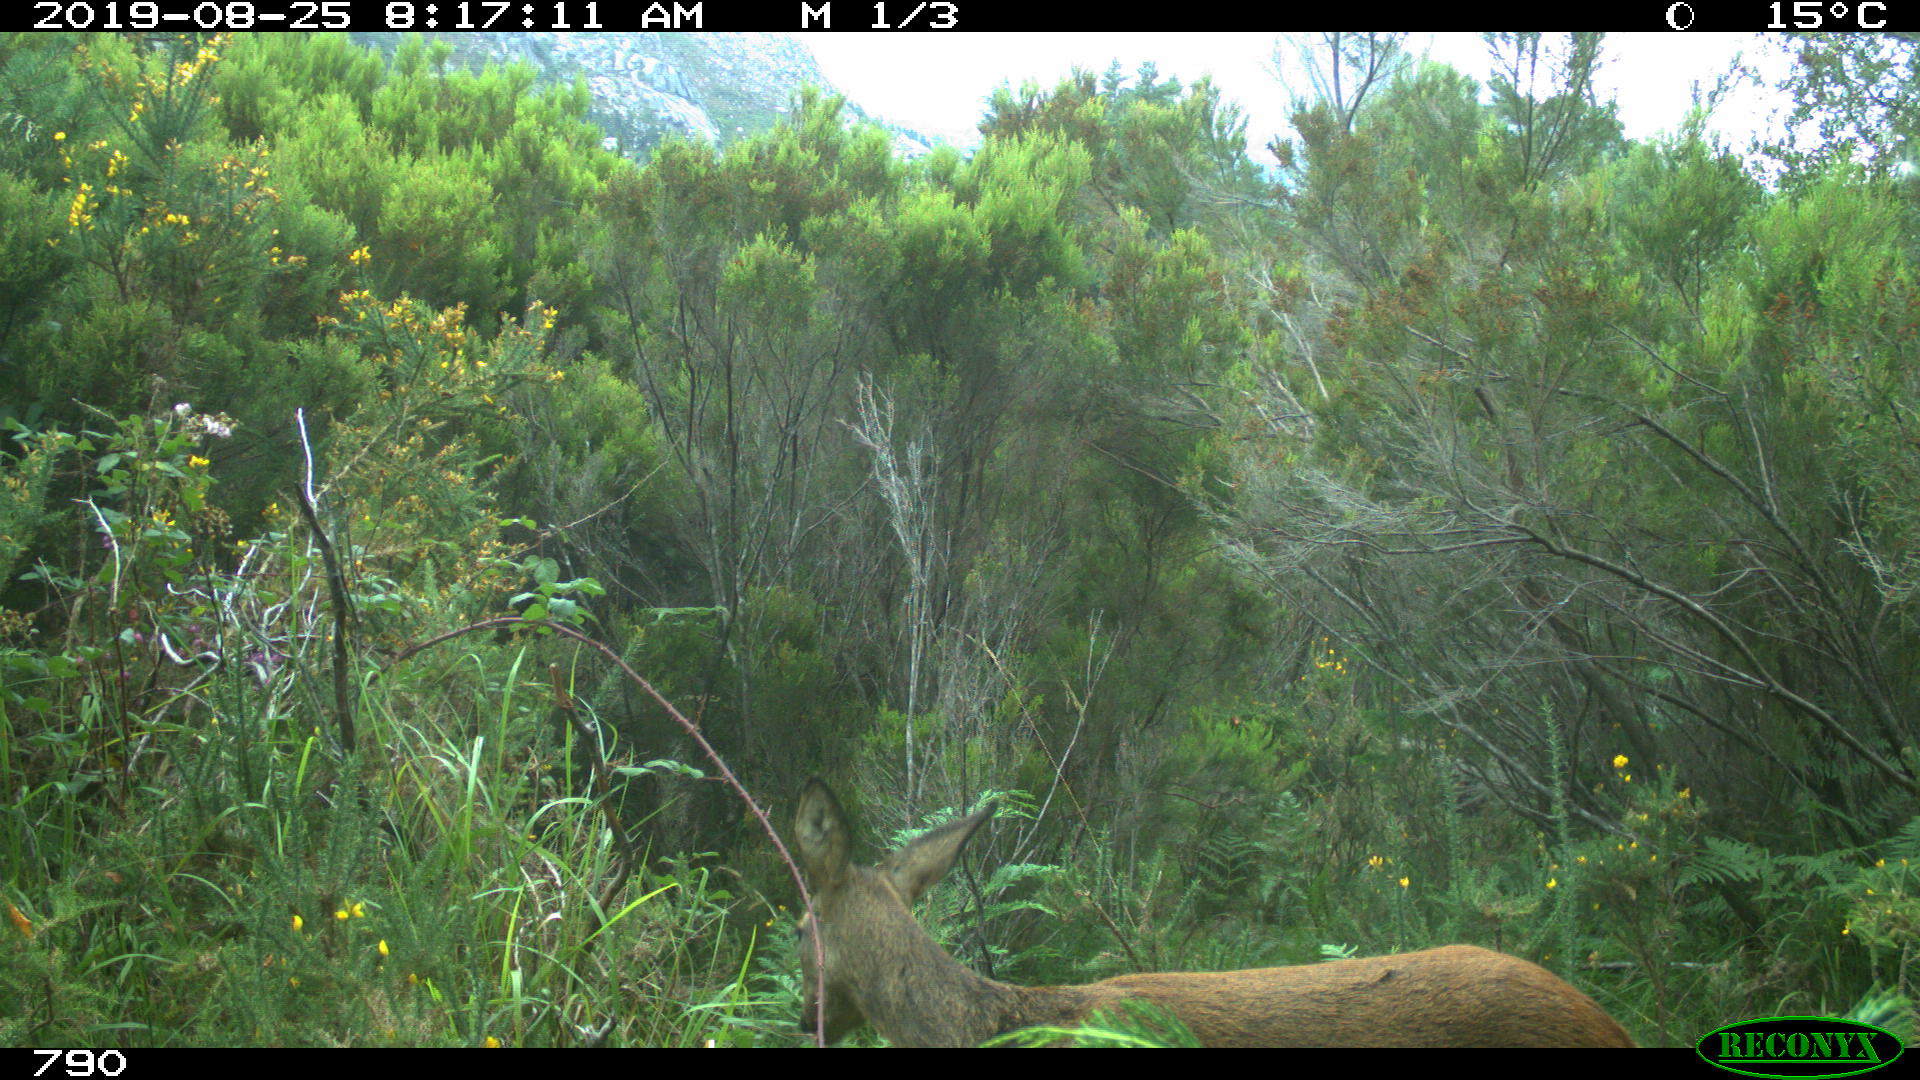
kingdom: Animalia
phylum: Chordata
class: Mammalia
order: Artiodactyla
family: Cervidae
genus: Capreolus
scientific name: Capreolus capreolus
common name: Western roe deer
